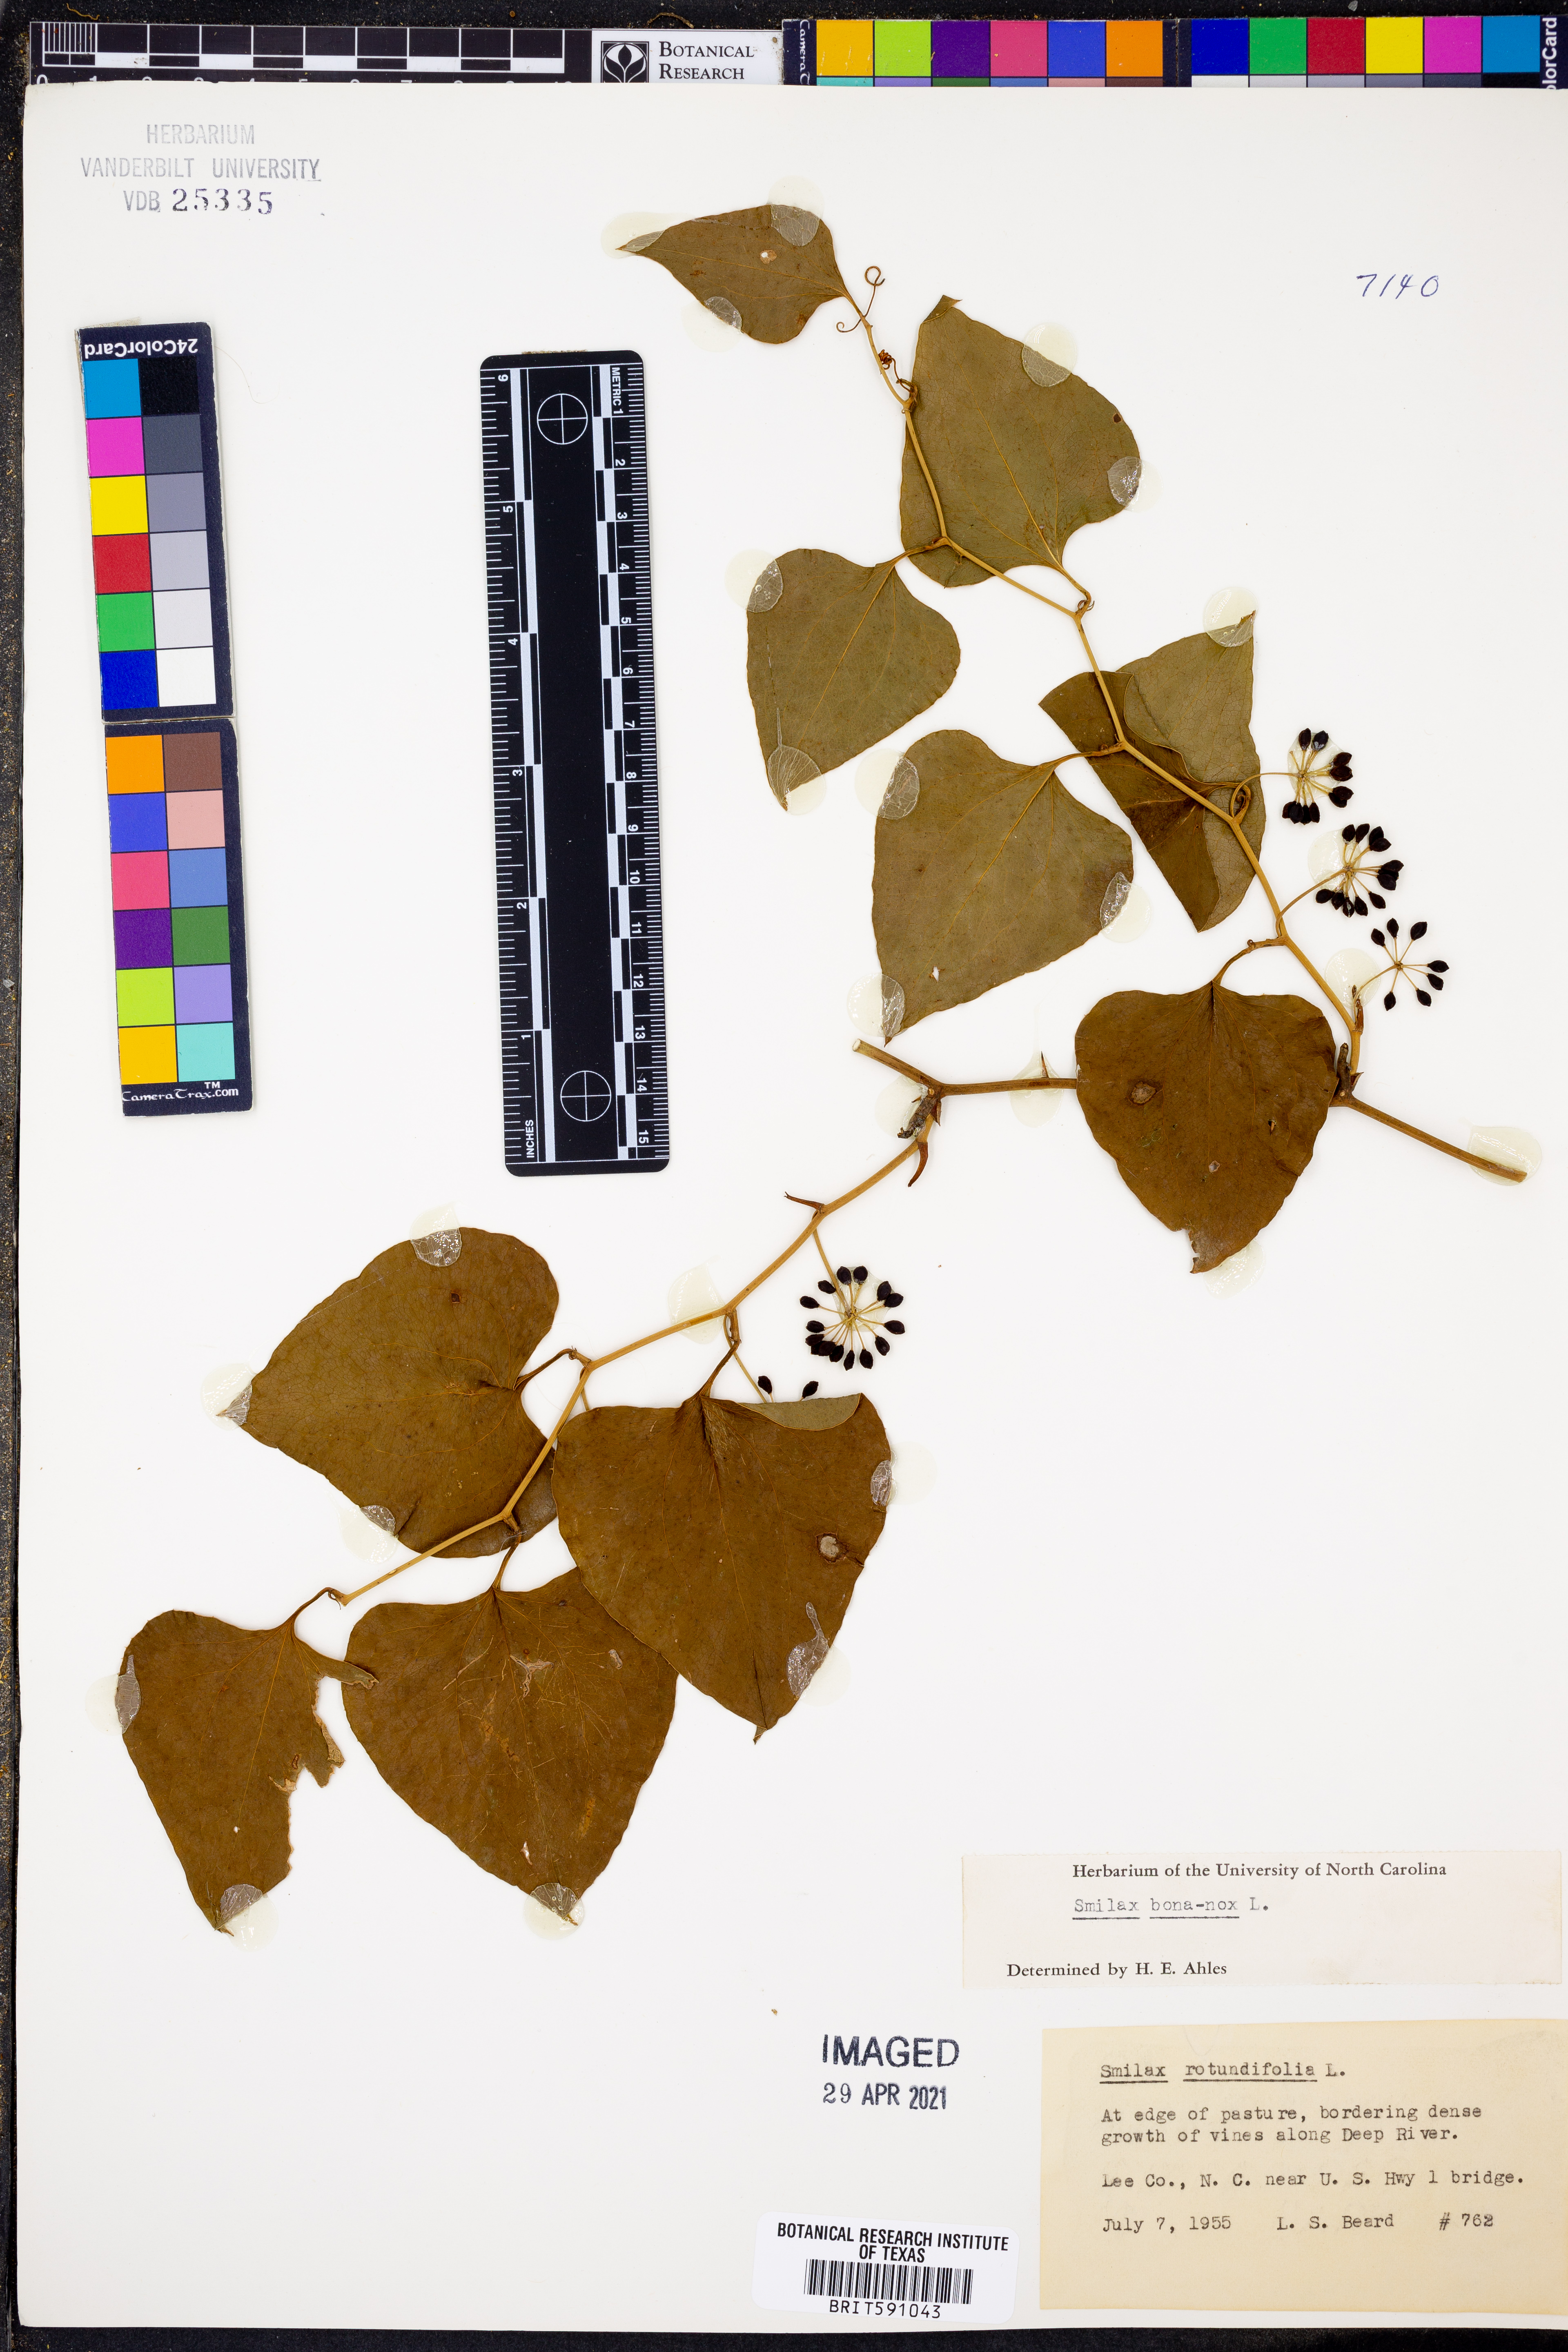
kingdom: Plantae
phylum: Tracheophyta
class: Liliopsida
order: Liliales
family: Smilacaceae
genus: Smilax
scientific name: Smilax bona-nox
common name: Catbrier
